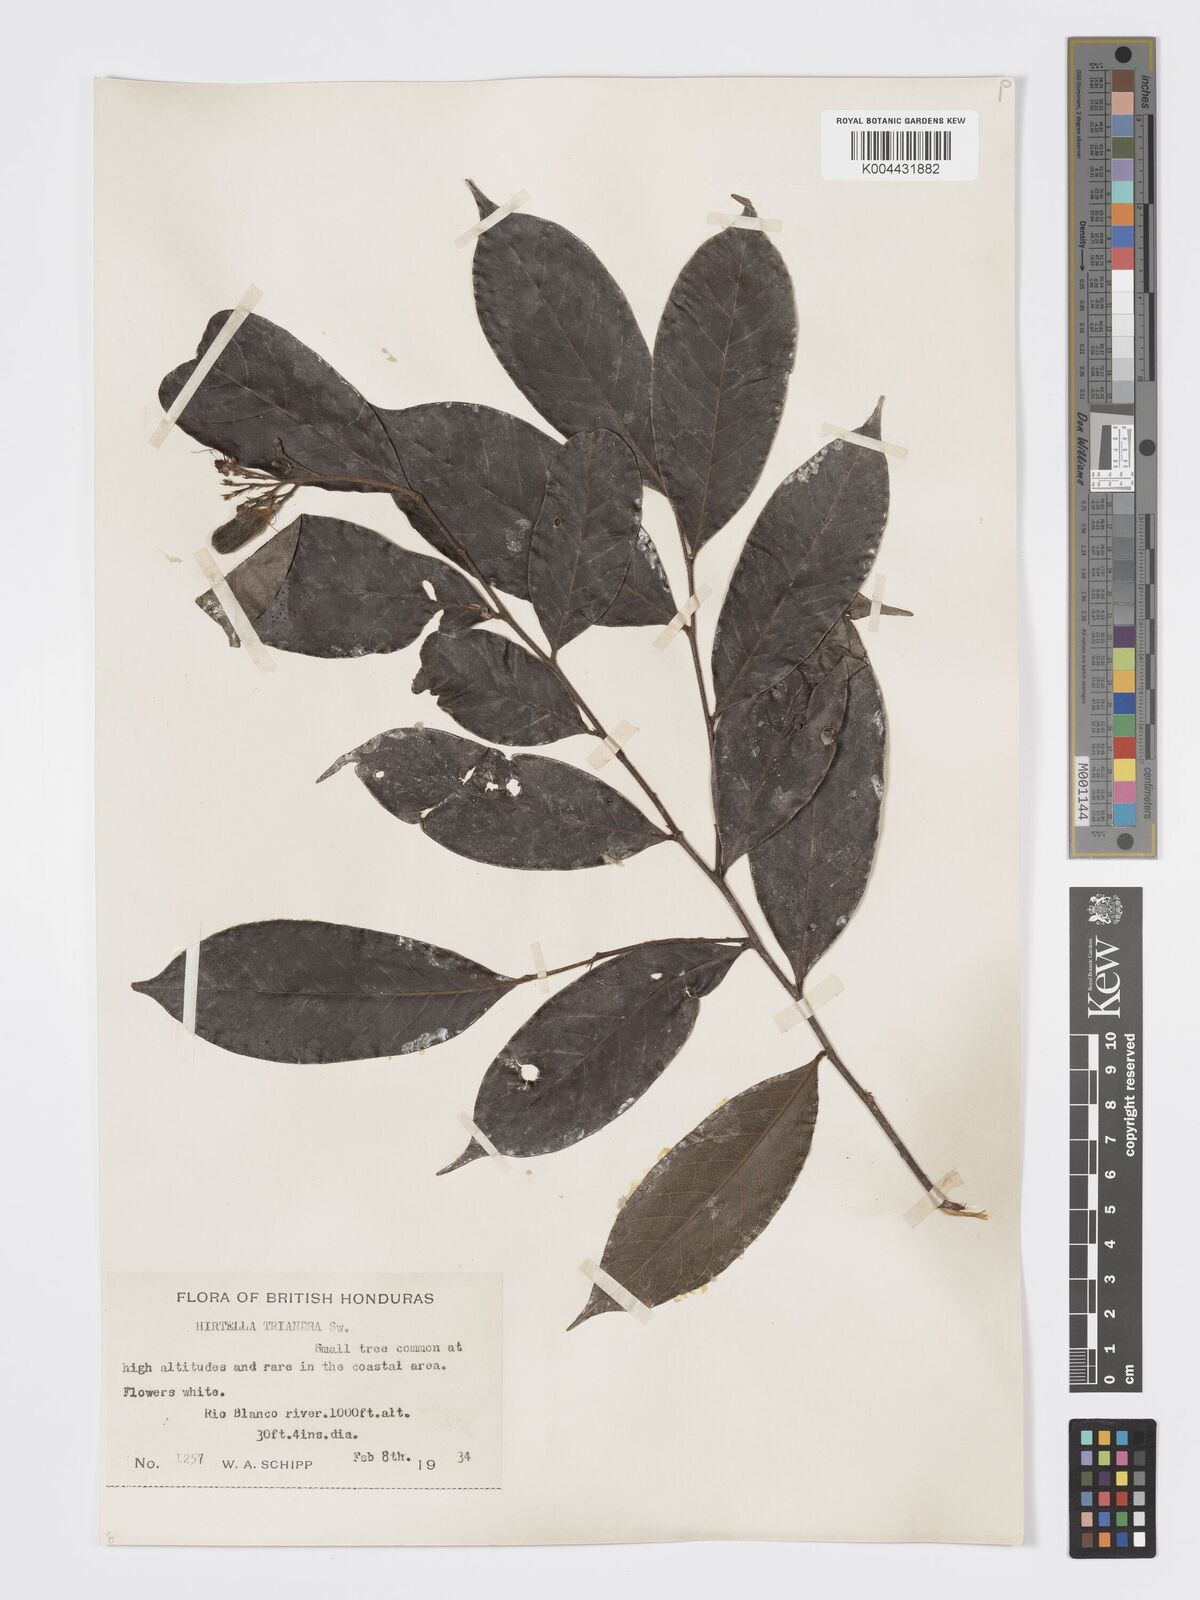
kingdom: Plantae
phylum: Tracheophyta
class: Magnoliopsida
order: Malpighiales
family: Chrysobalanaceae
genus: Hirtella
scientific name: Hirtella triandra
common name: Hairy plum
